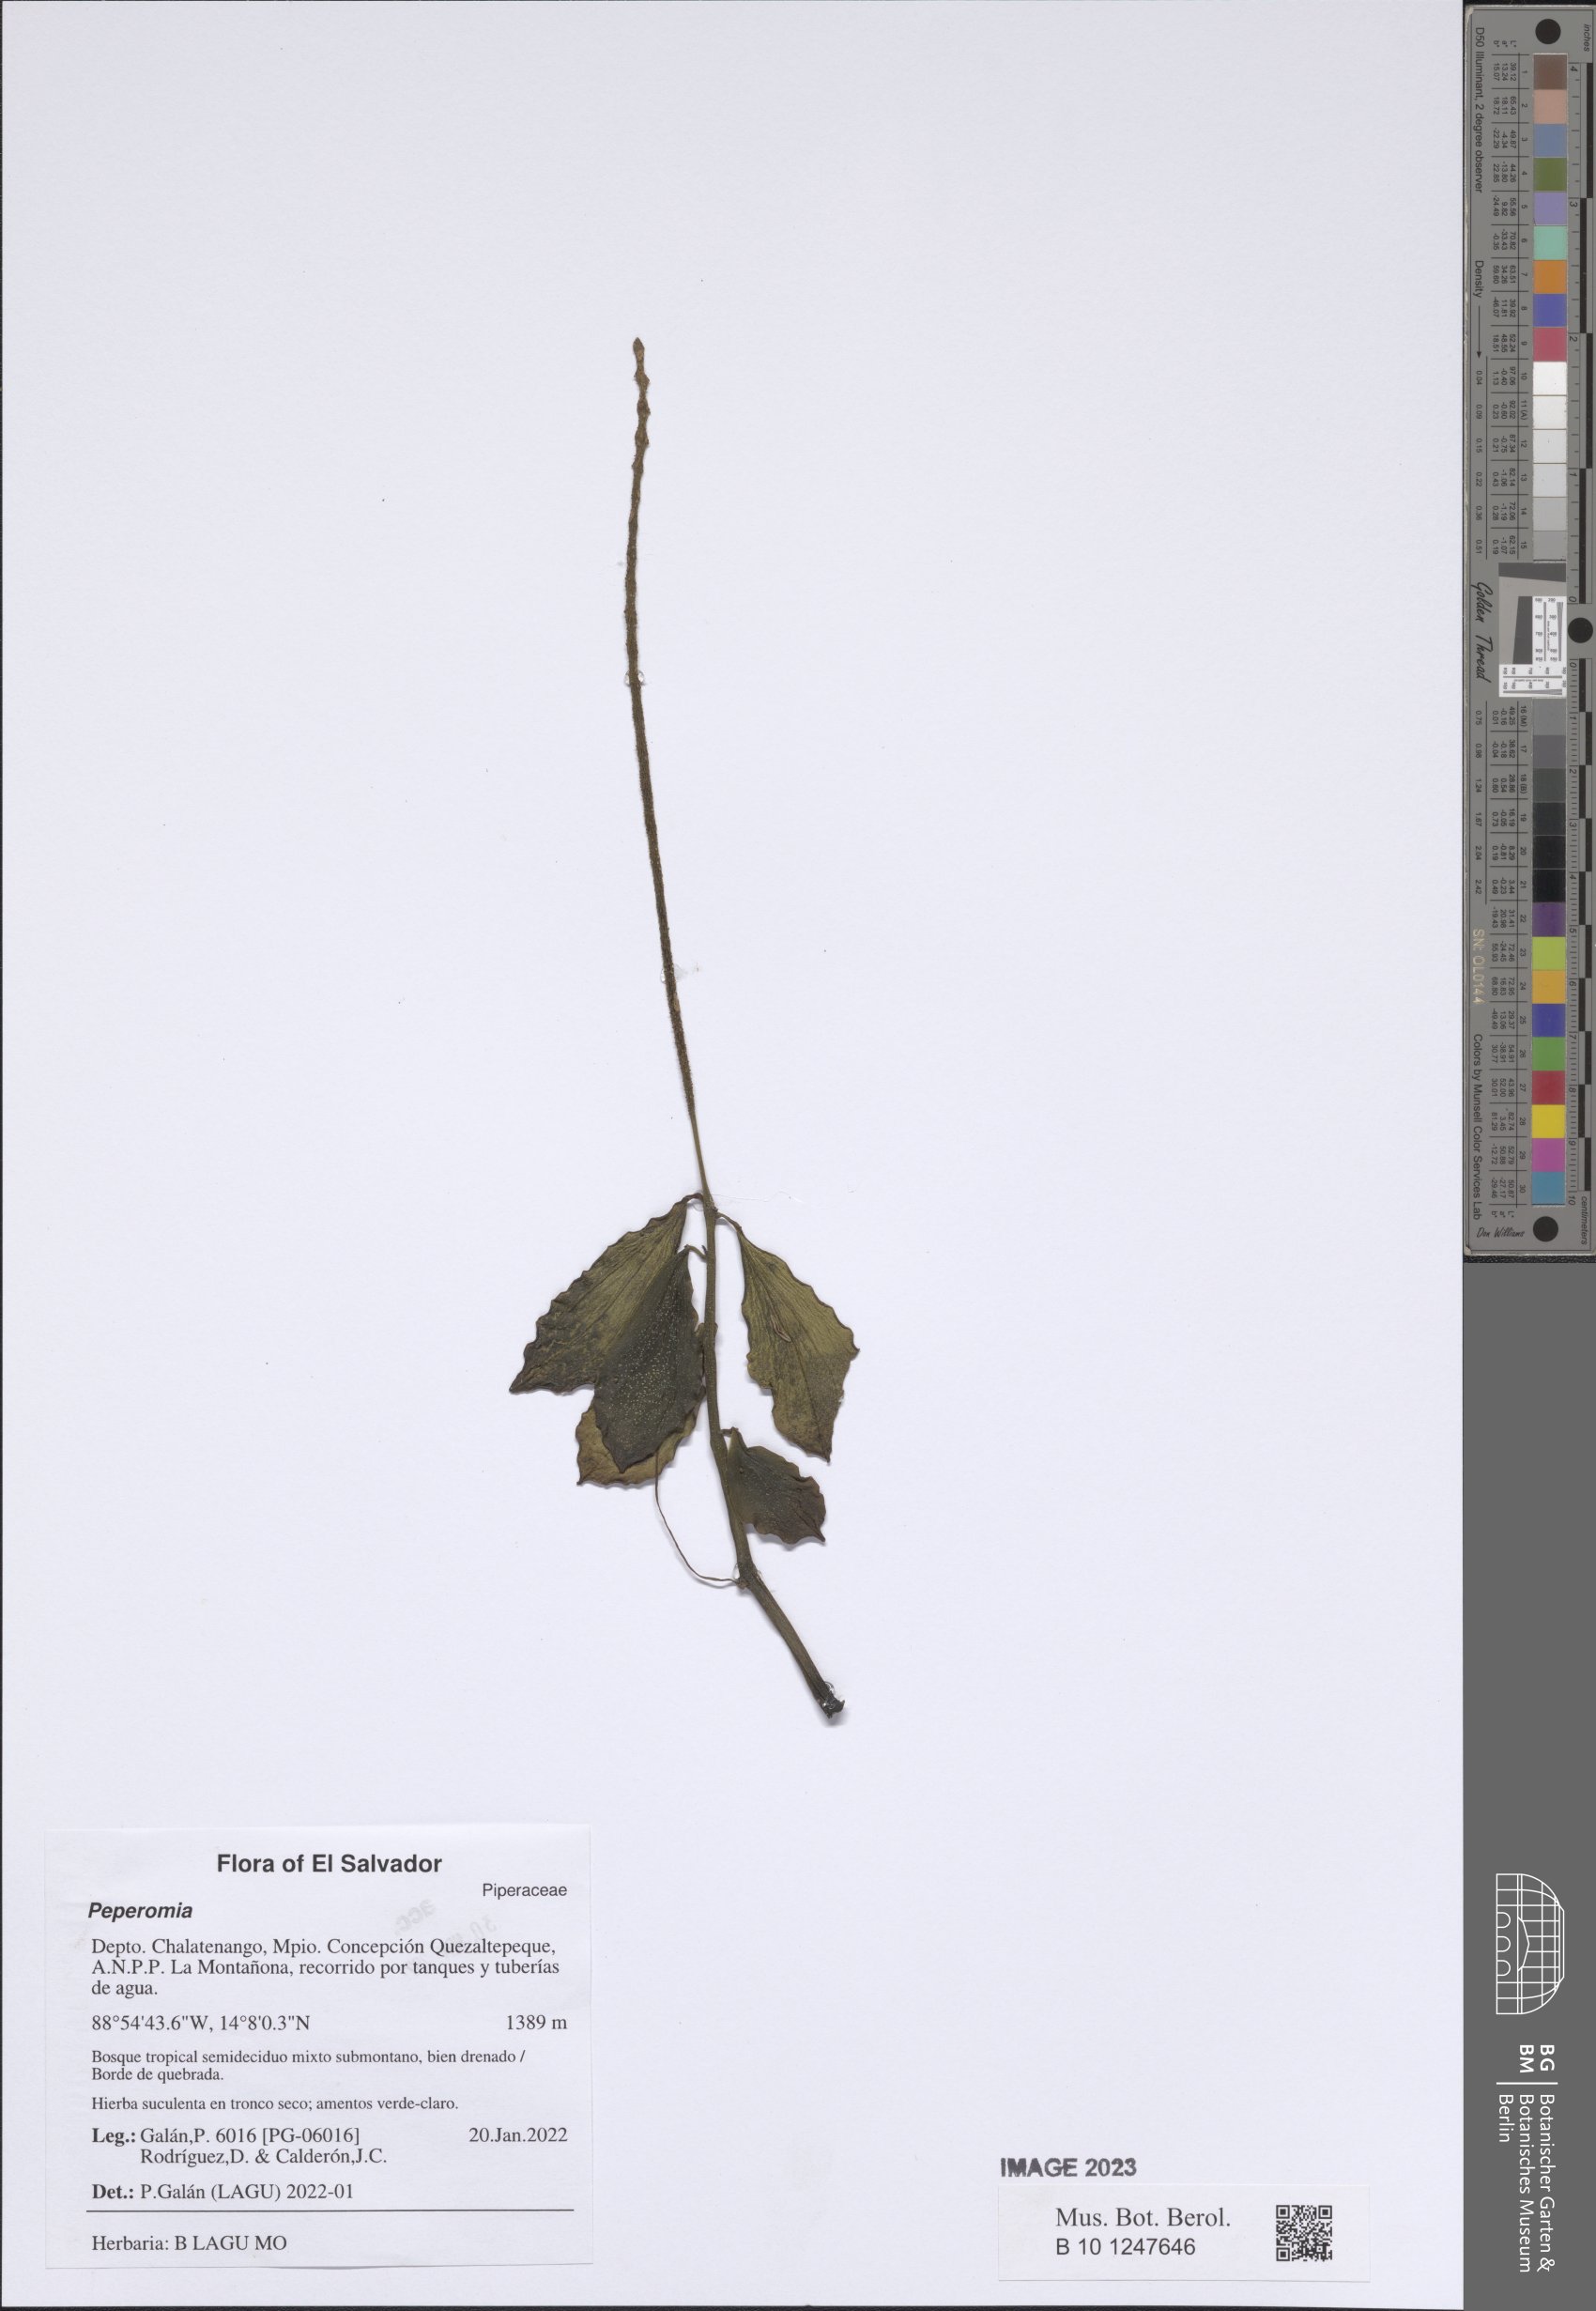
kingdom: Plantae
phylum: Tracheophyta
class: Magnoliopsida
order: Piperales
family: Piperaceae
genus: Peperomia
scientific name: Peperomia
